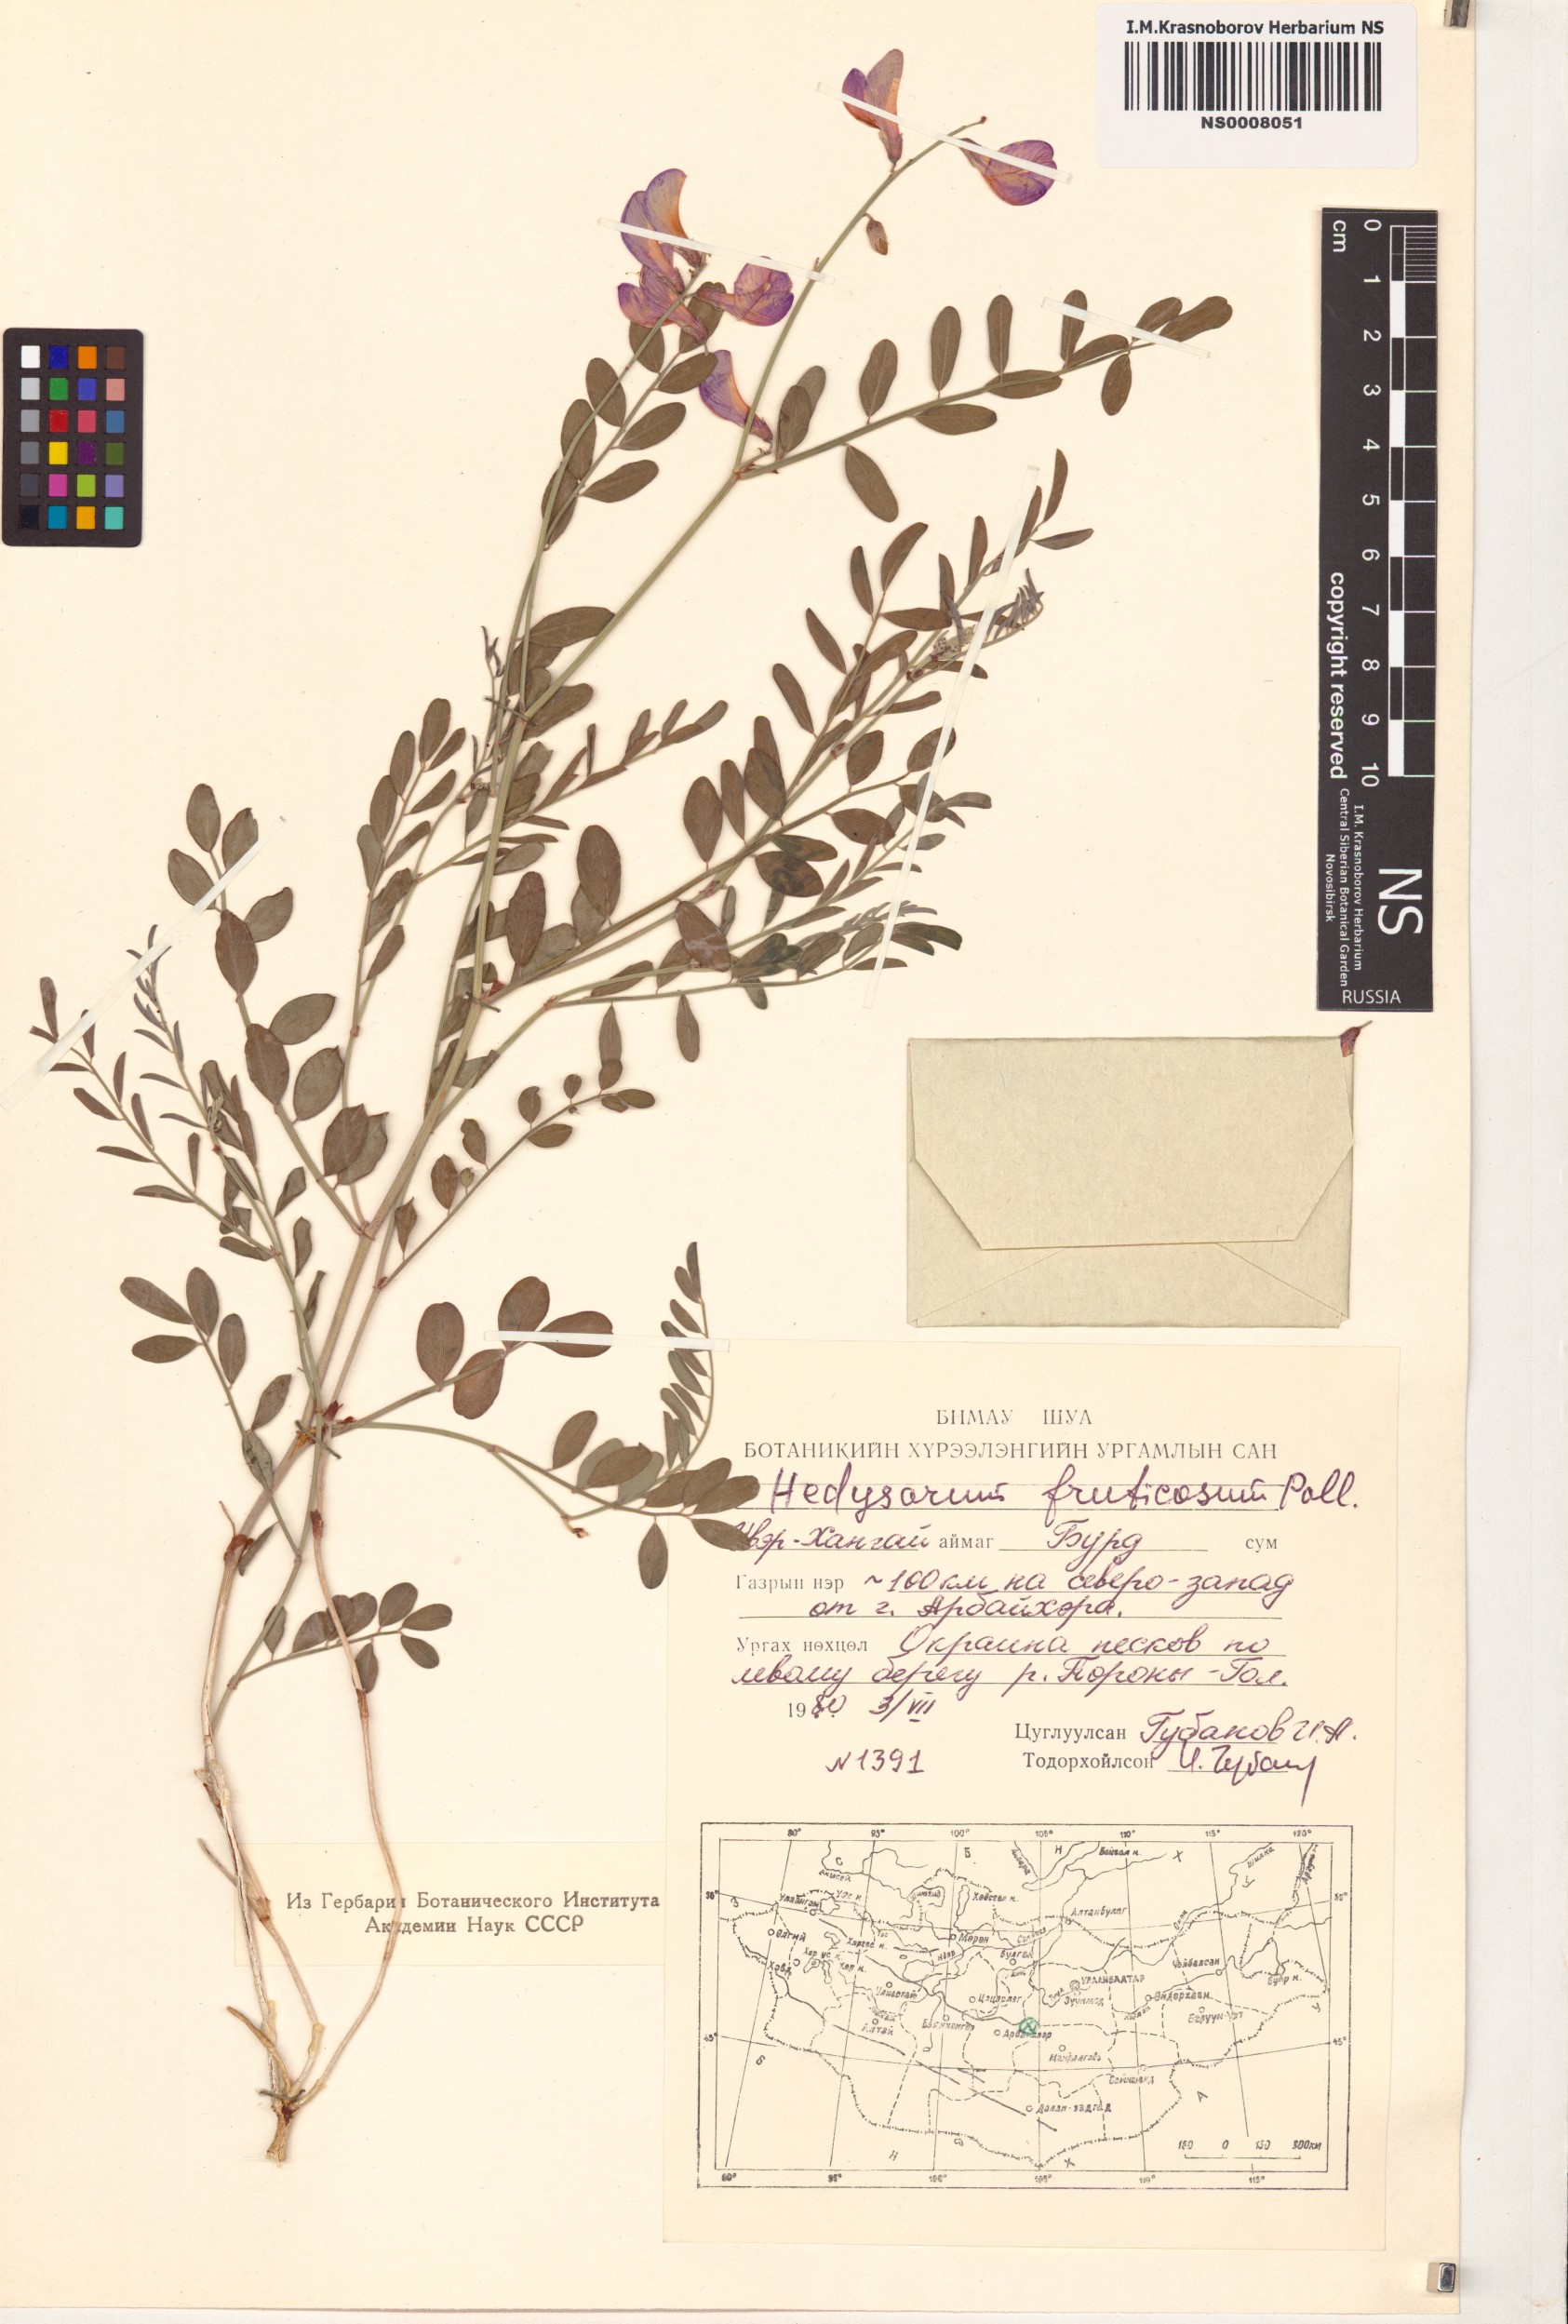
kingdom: Plantae
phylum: Tracheophyta
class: Magnoliopsida
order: Fabales
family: Fabaceae
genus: Corethrodendron
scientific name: Corethrodendron fruticosum
